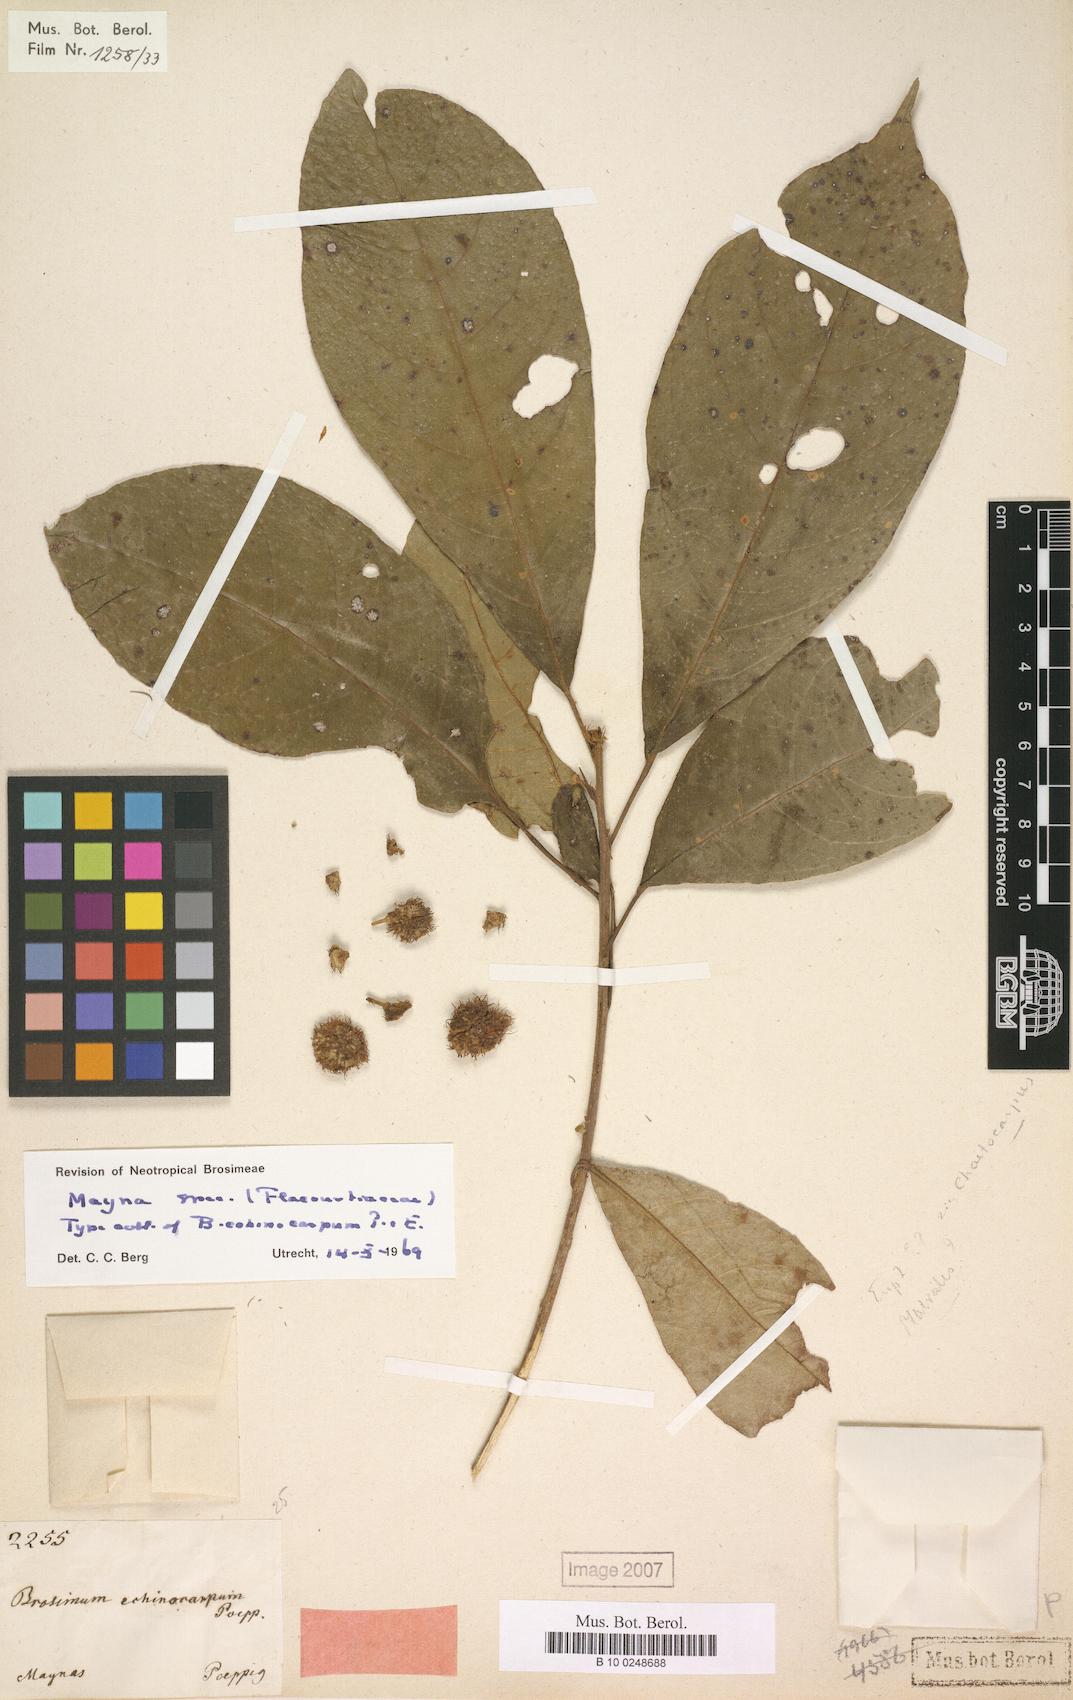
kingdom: Plantae
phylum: Tracheophyta
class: Magnoliopsida
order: Malpighiales
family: Achariaceae
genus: Mayna
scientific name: Mayna odorata
